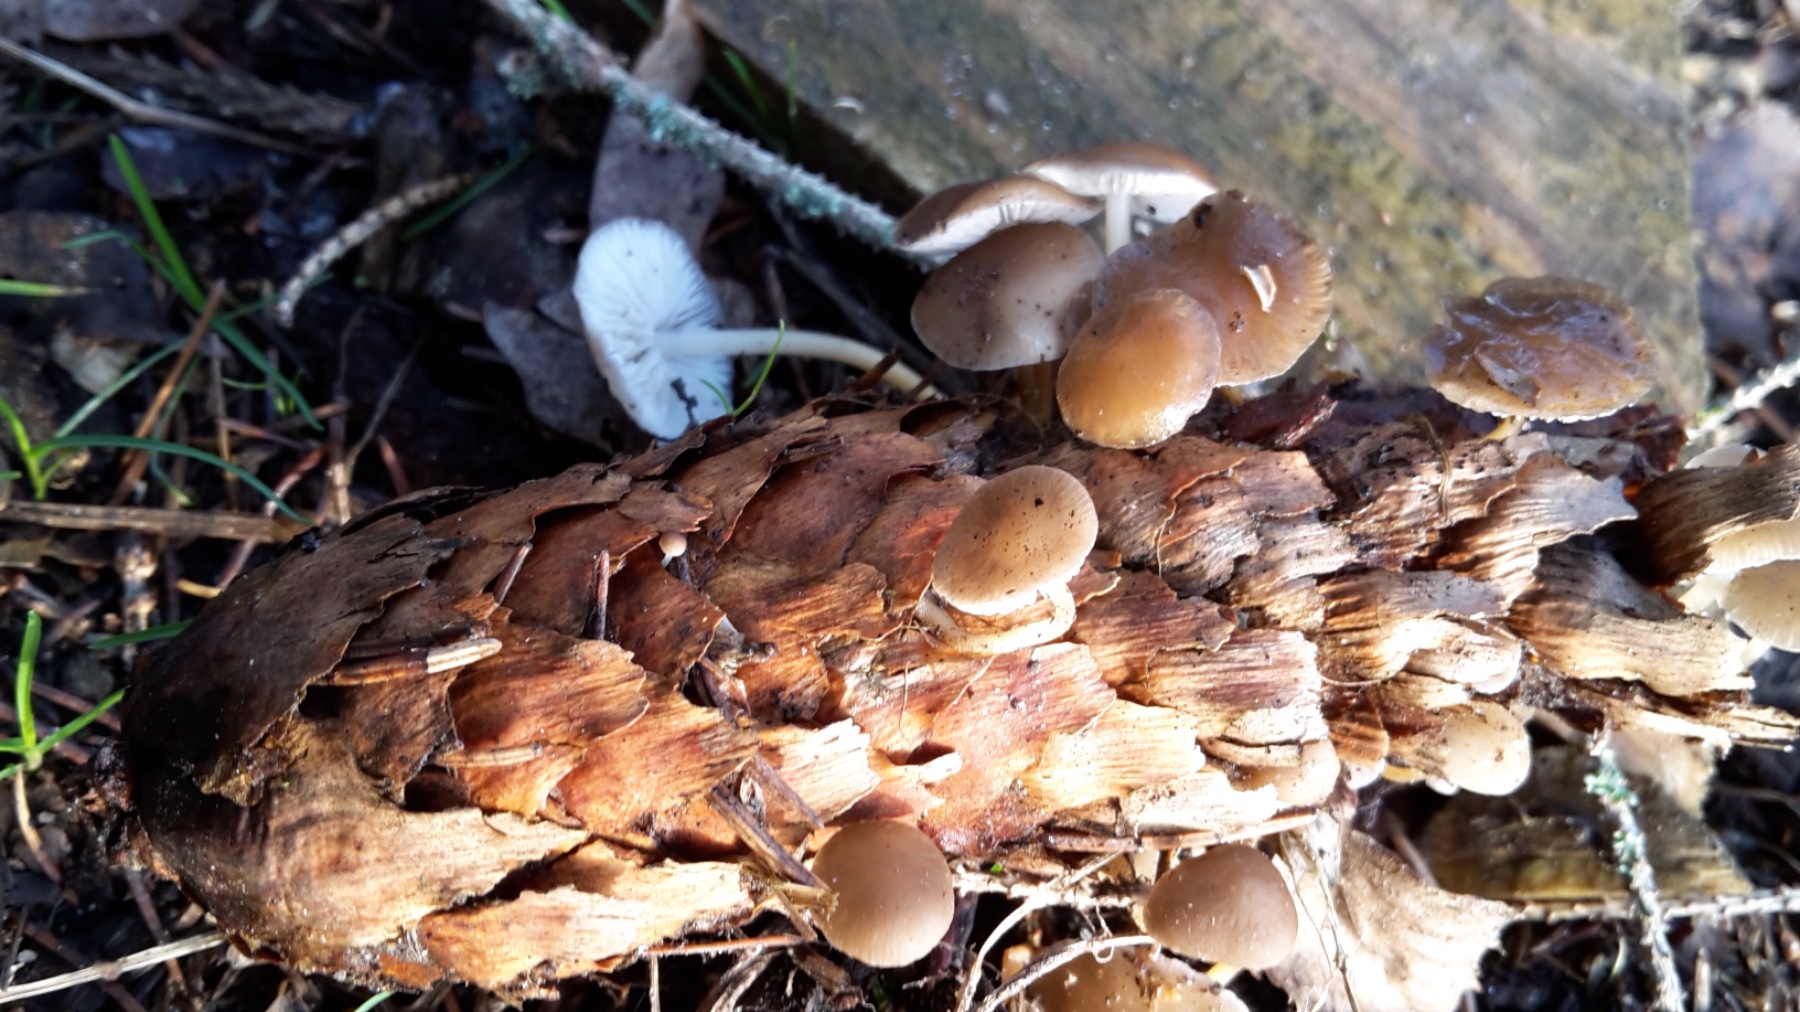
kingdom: Fungi
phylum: Basidiomycota
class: Agaricomycetes
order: Agaricales
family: Physalacriaceae
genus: Strobilurus
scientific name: Strobilurus esculentus
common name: gran-koglehat
